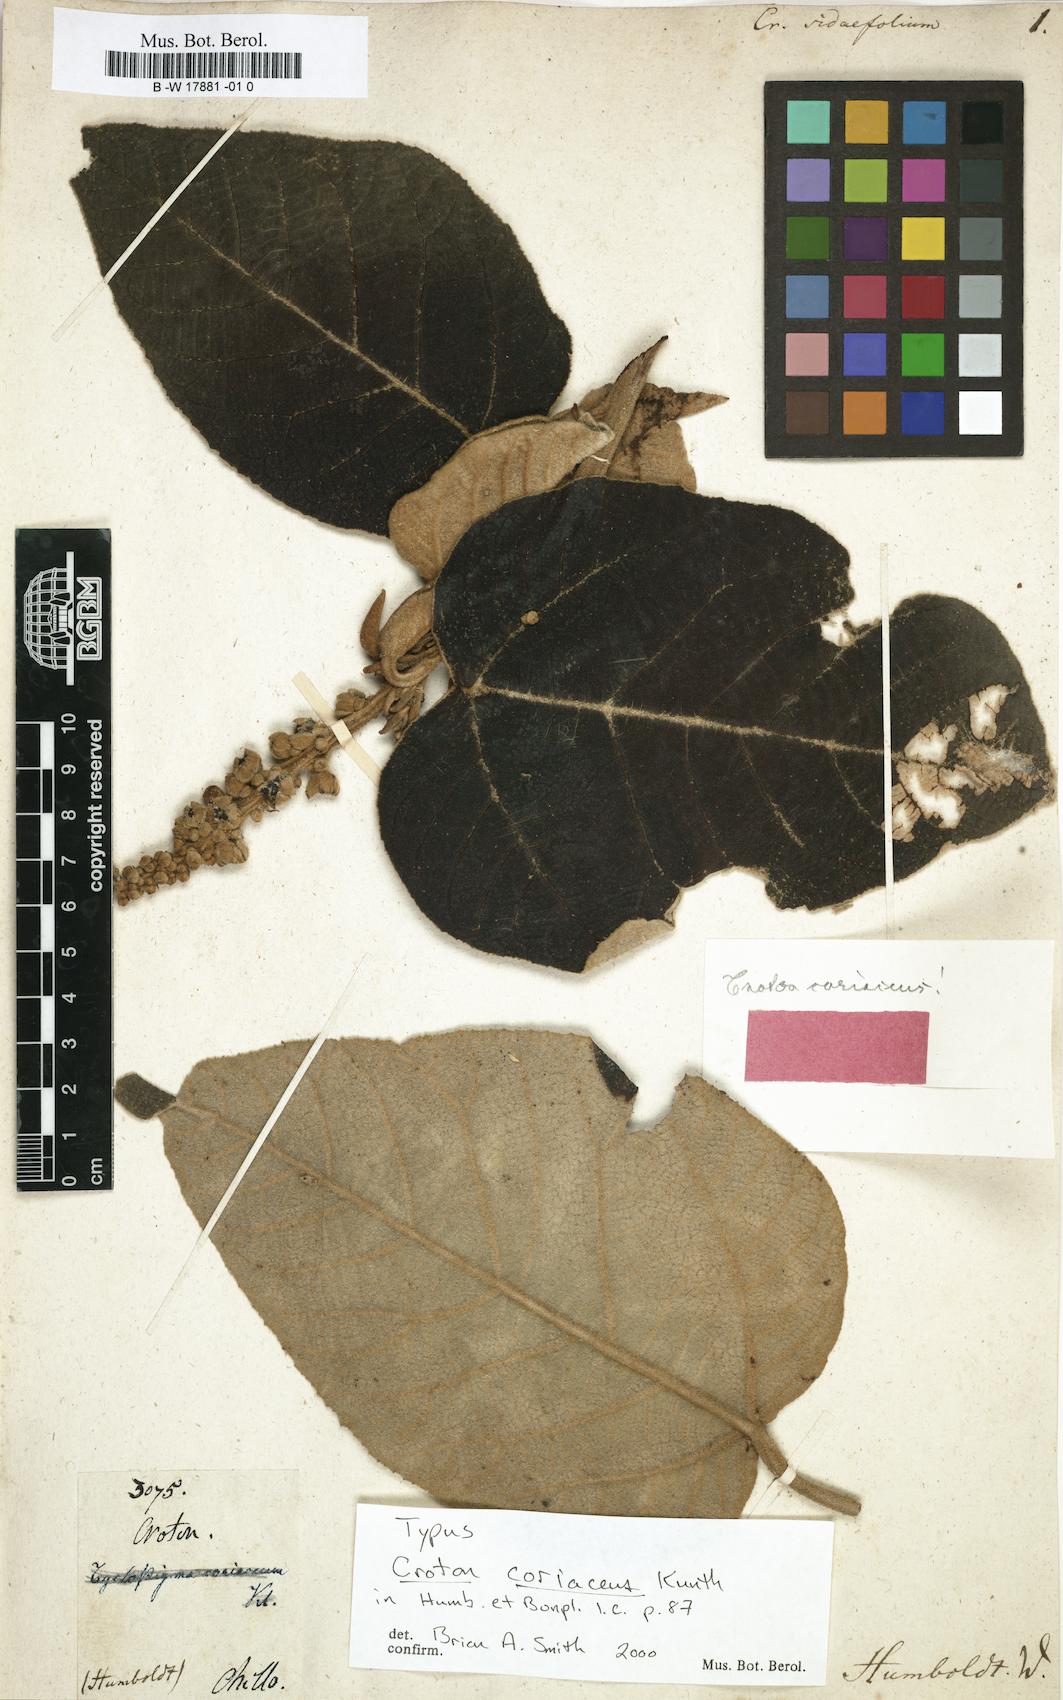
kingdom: Plantae
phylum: Tracheophyta
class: Magnoliopsida
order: Malpighiales
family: Euphorbiaceae
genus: Croton
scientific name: Croton sidifolius
